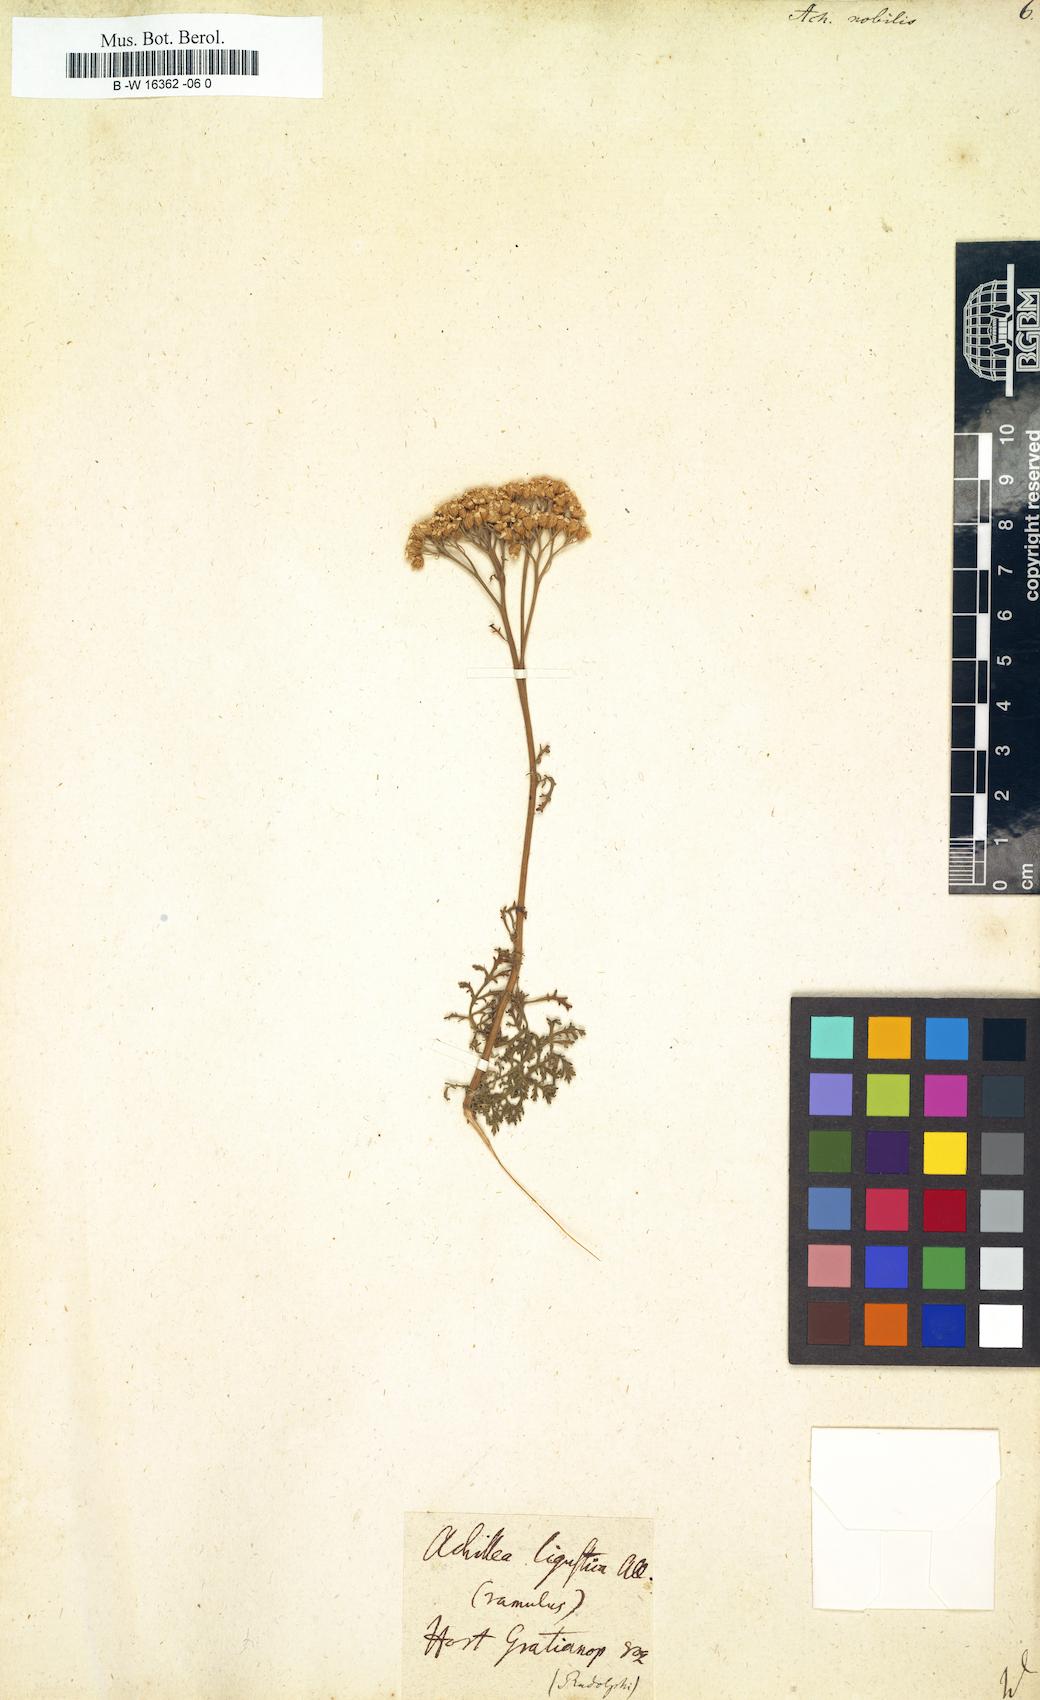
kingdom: Plantae
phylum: Tracheophyta
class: Magnoliopsida
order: Asterales
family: Asteraceae
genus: Achillea
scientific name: Achillea nobilis
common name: Noble yarrow
